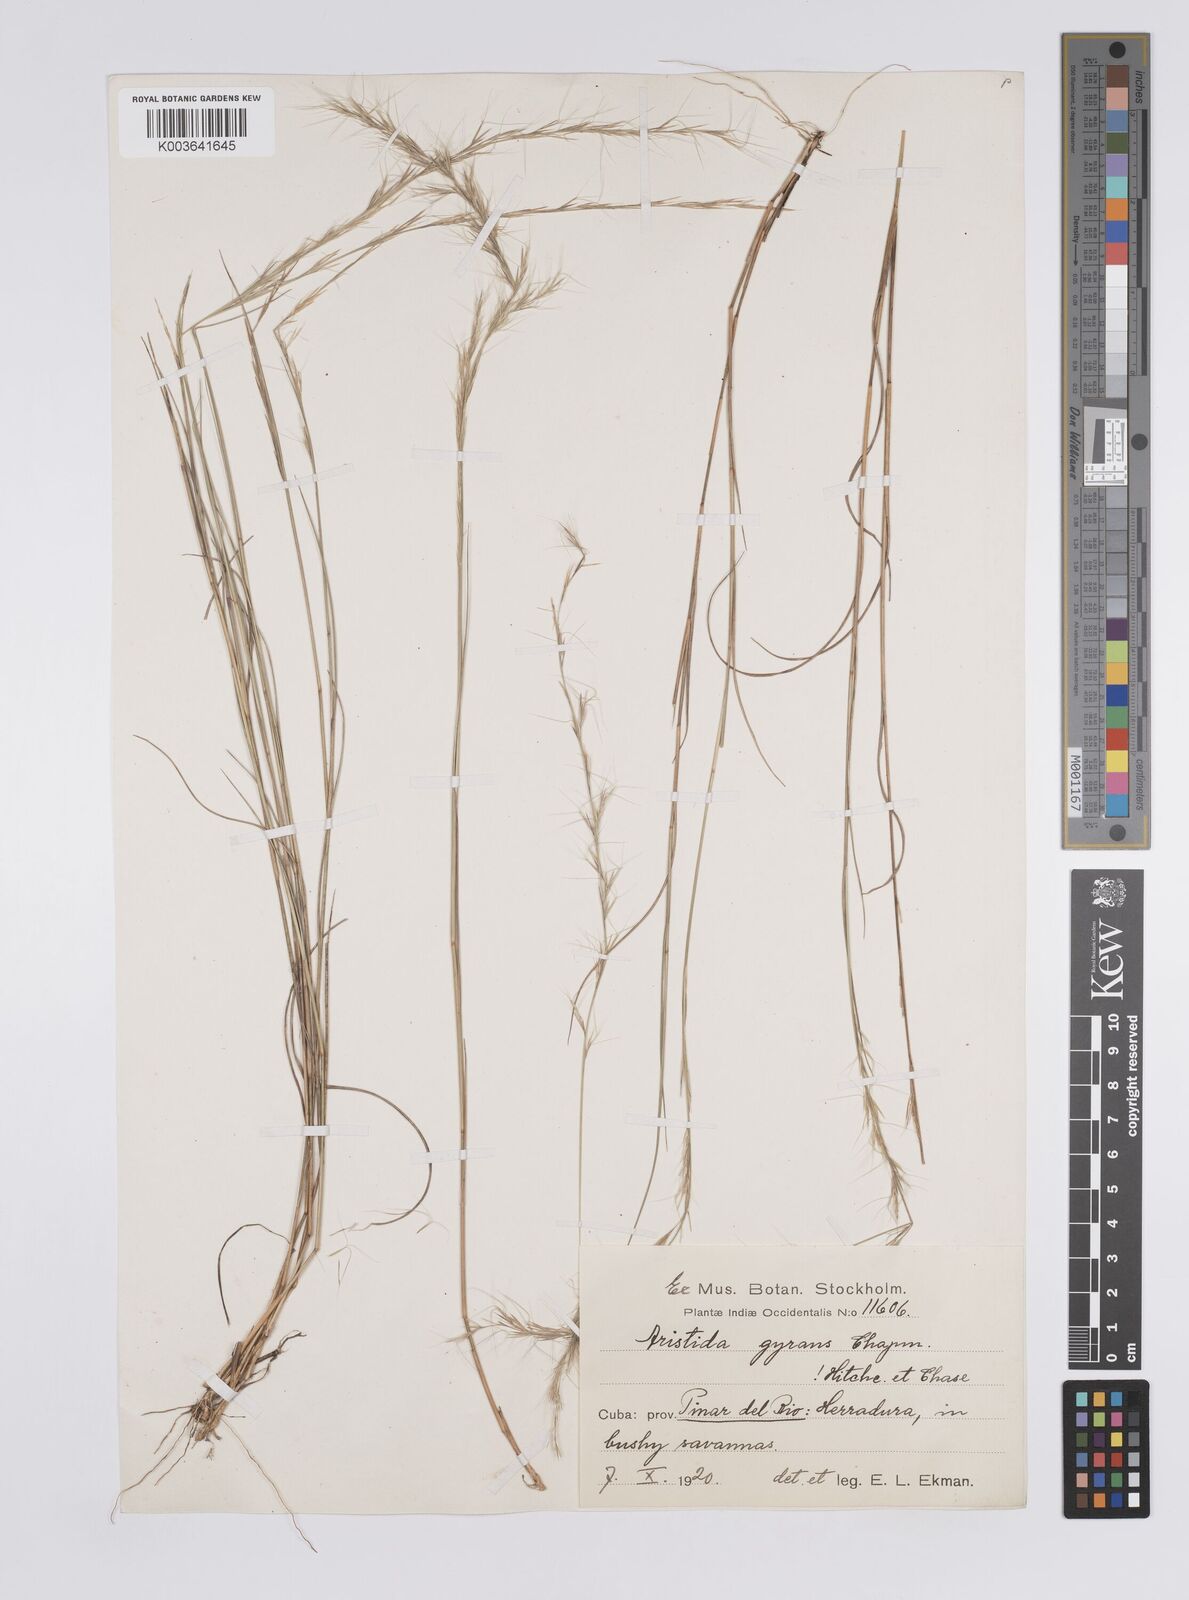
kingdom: Plantae
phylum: Tracheophyta
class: Liliopsida
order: Poales
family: Poaceae
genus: Aristida
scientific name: Aristida vilfifolia
